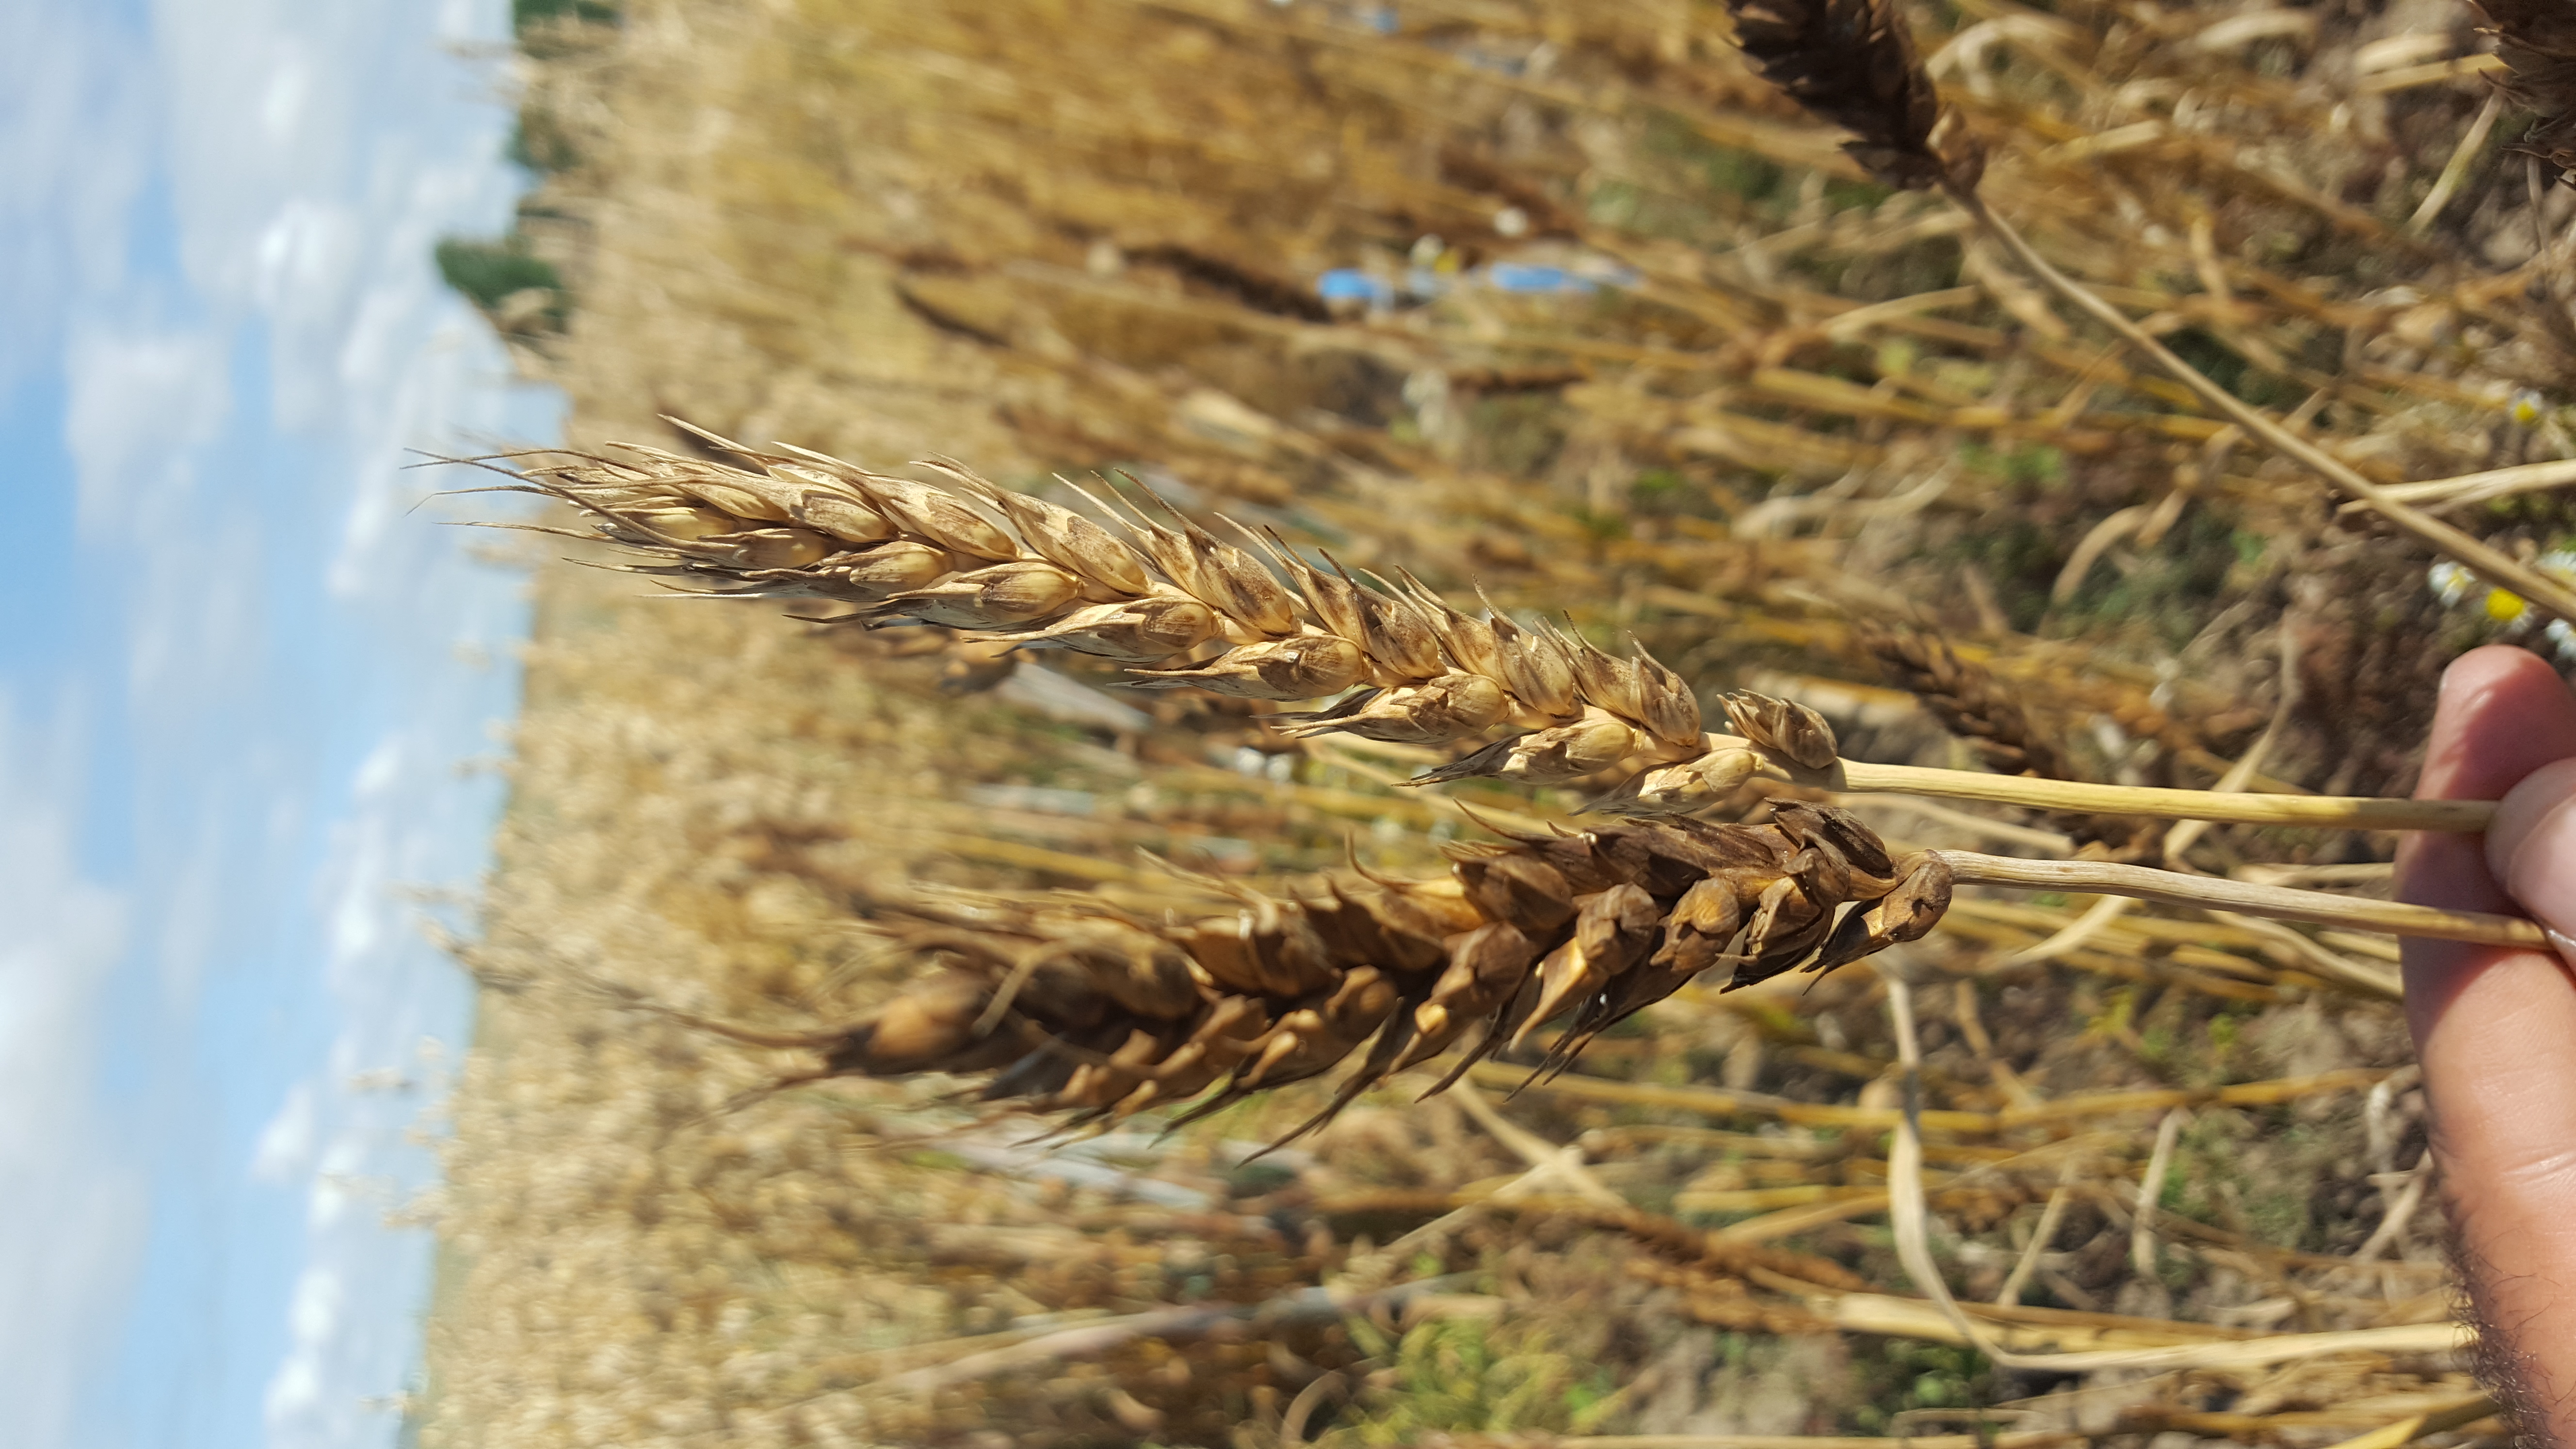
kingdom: Plantae
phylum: Tracheophyta
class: Liliopsida
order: Poales
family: Poaceae
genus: Triticum
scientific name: Triticum aestivum
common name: Common wheat
